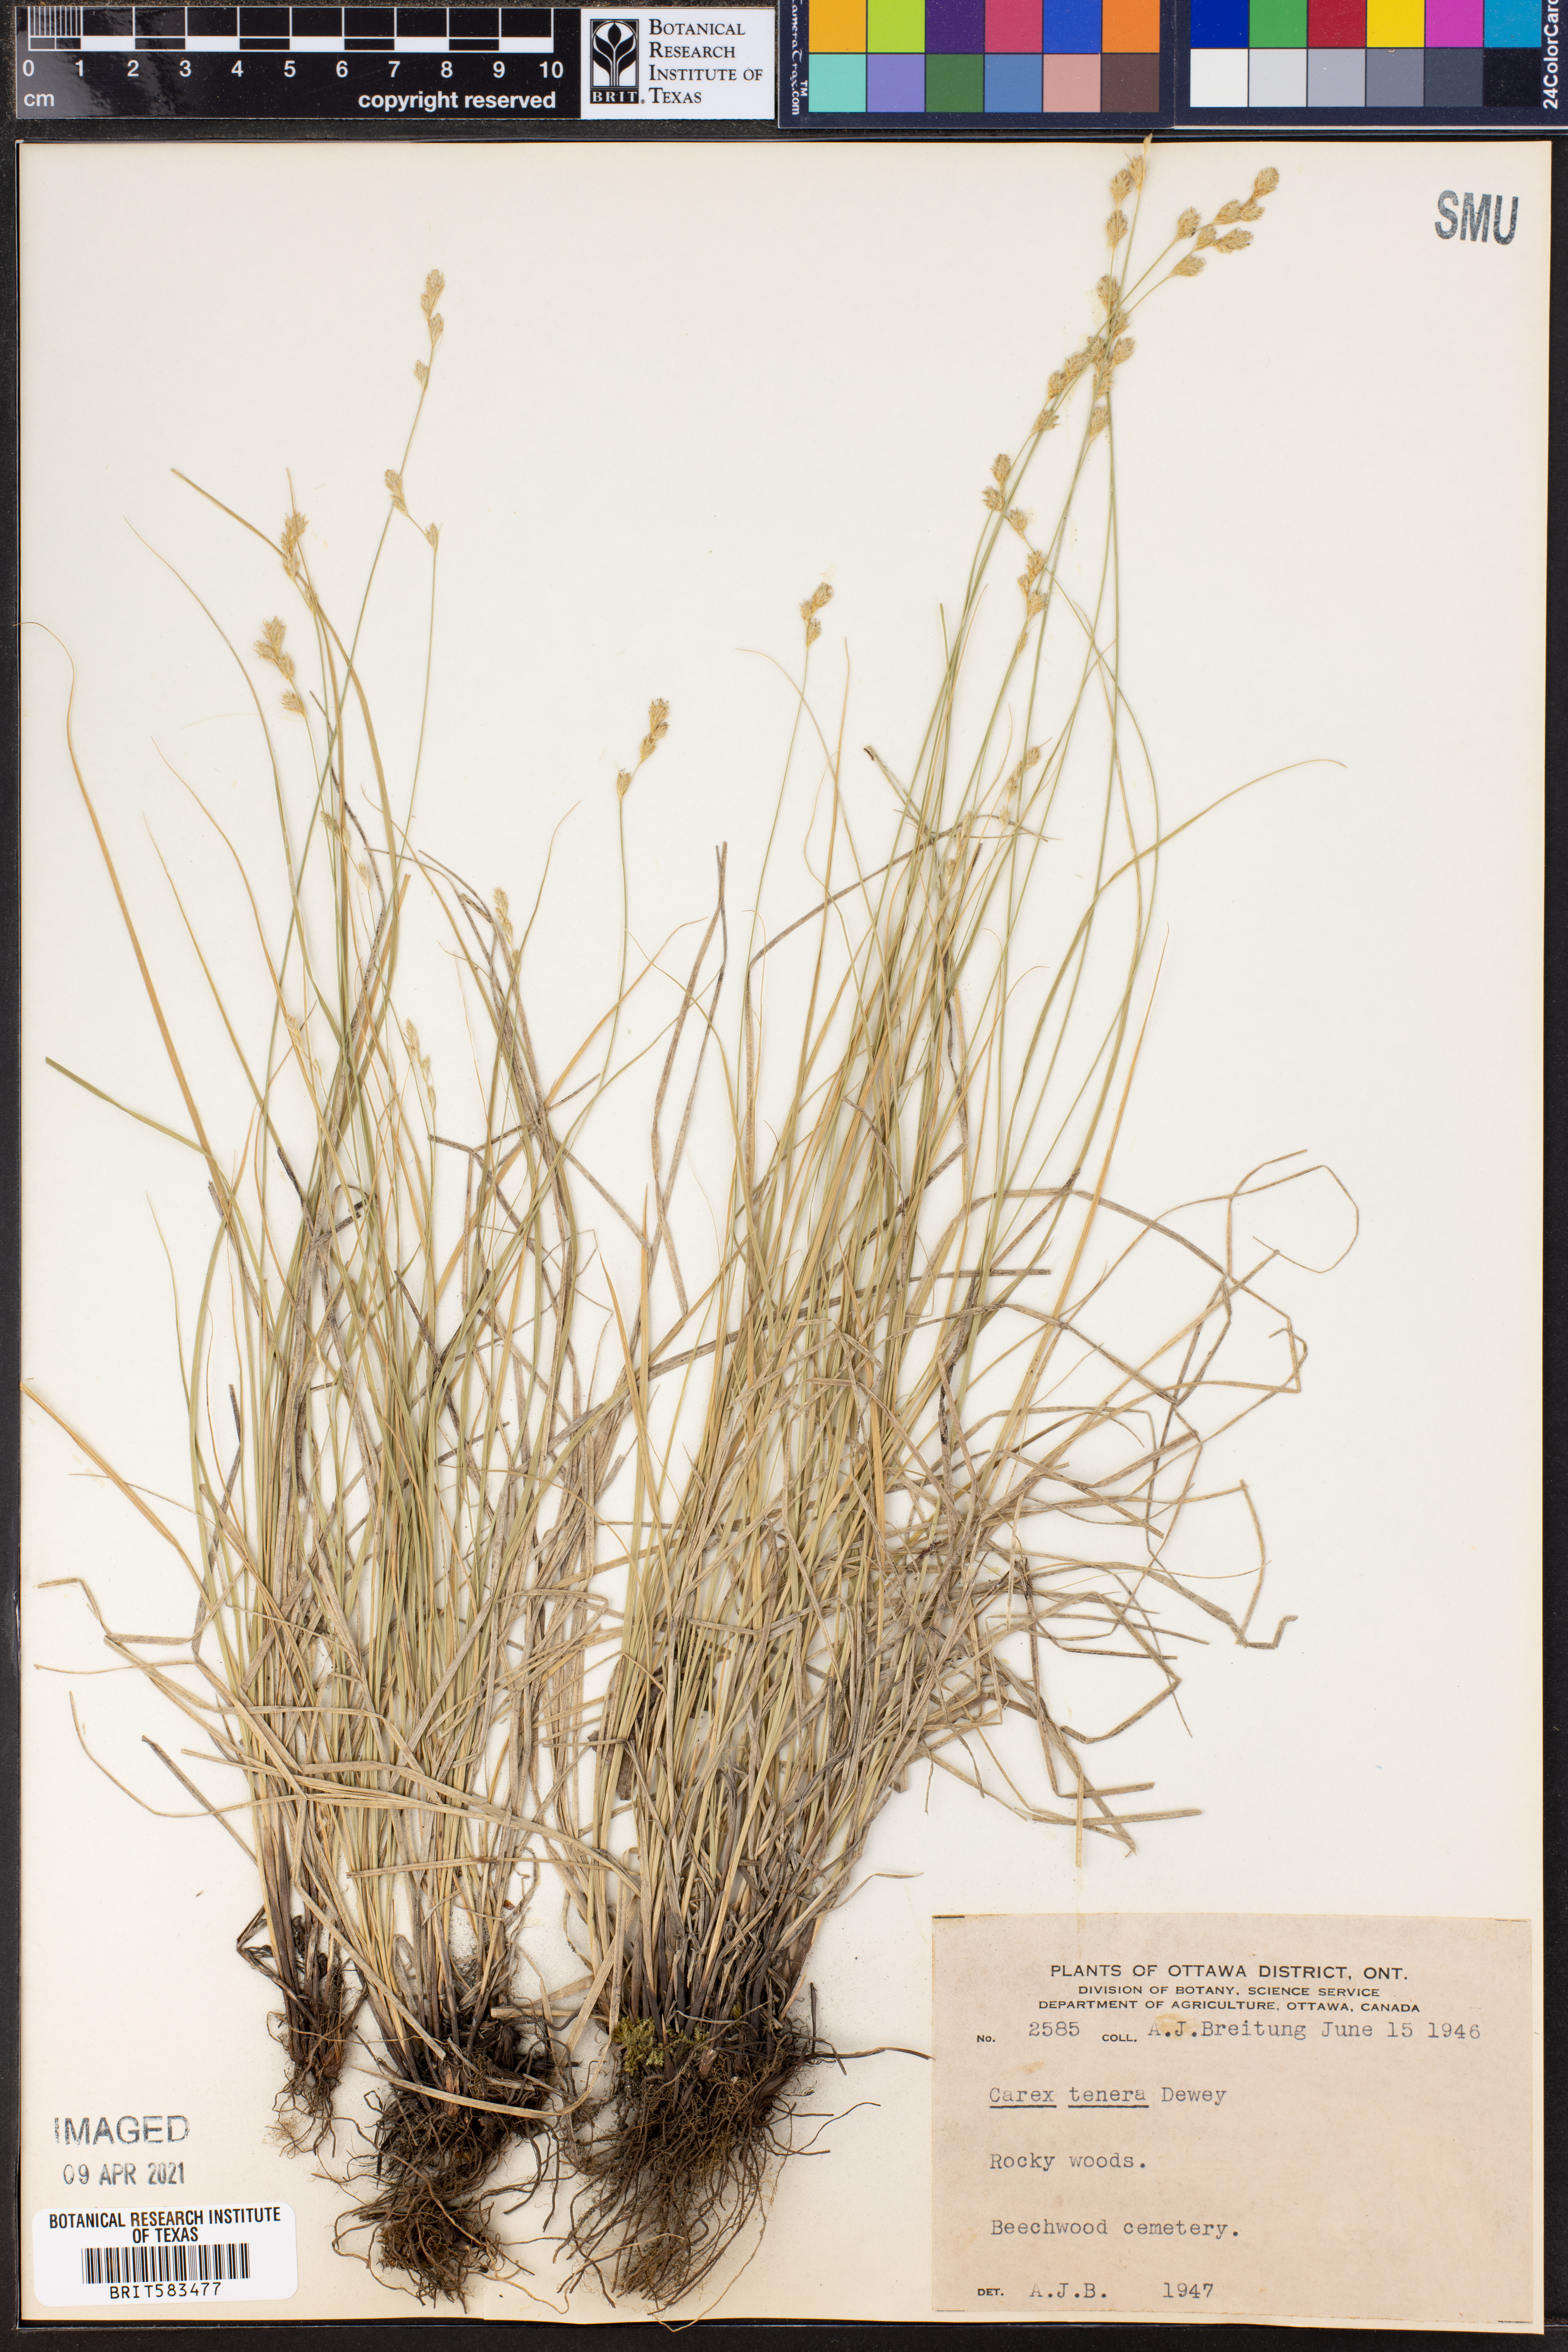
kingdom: Plantae
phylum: Tracheophyta
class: Liliopsida
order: Poales
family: Cyperaceae
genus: Carex
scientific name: Carex tenera
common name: Broad-fruited sedge
